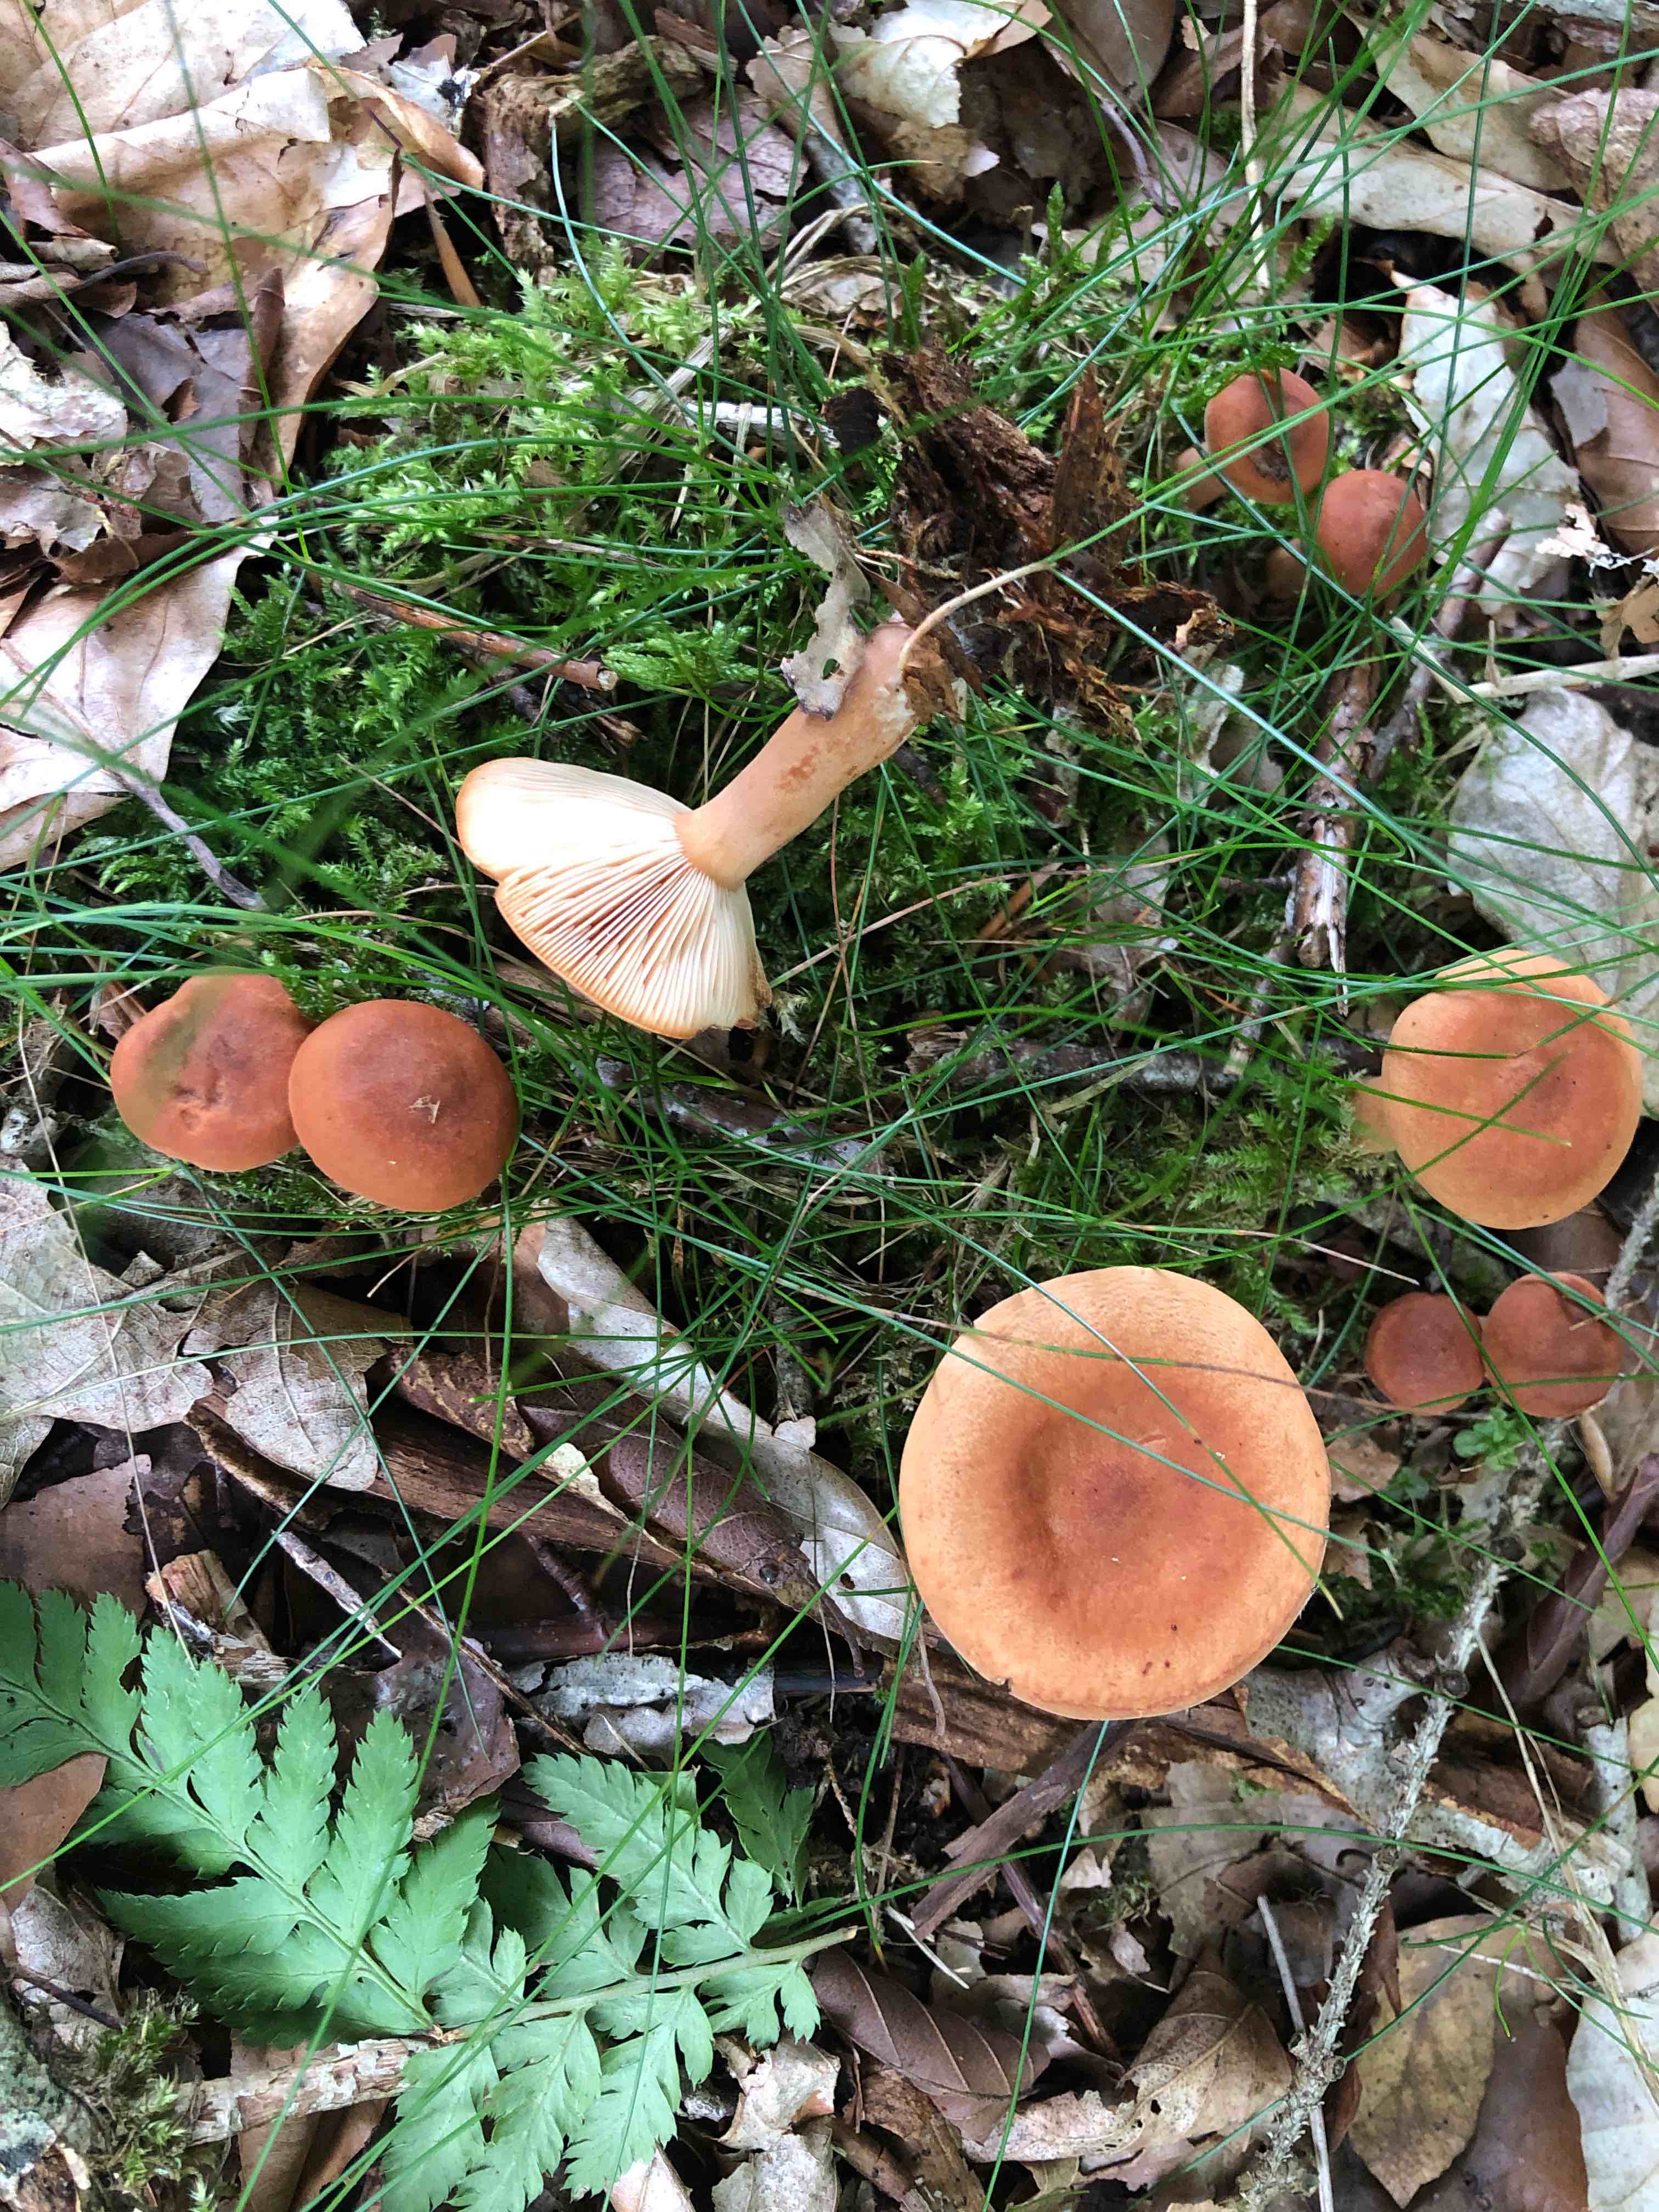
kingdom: Fungi
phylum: Basidiomycota
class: Agaricomycetes
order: Russulales
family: Russulaceae
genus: Lactarius
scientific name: Lactarius tabidus
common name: rynket mælkehat
